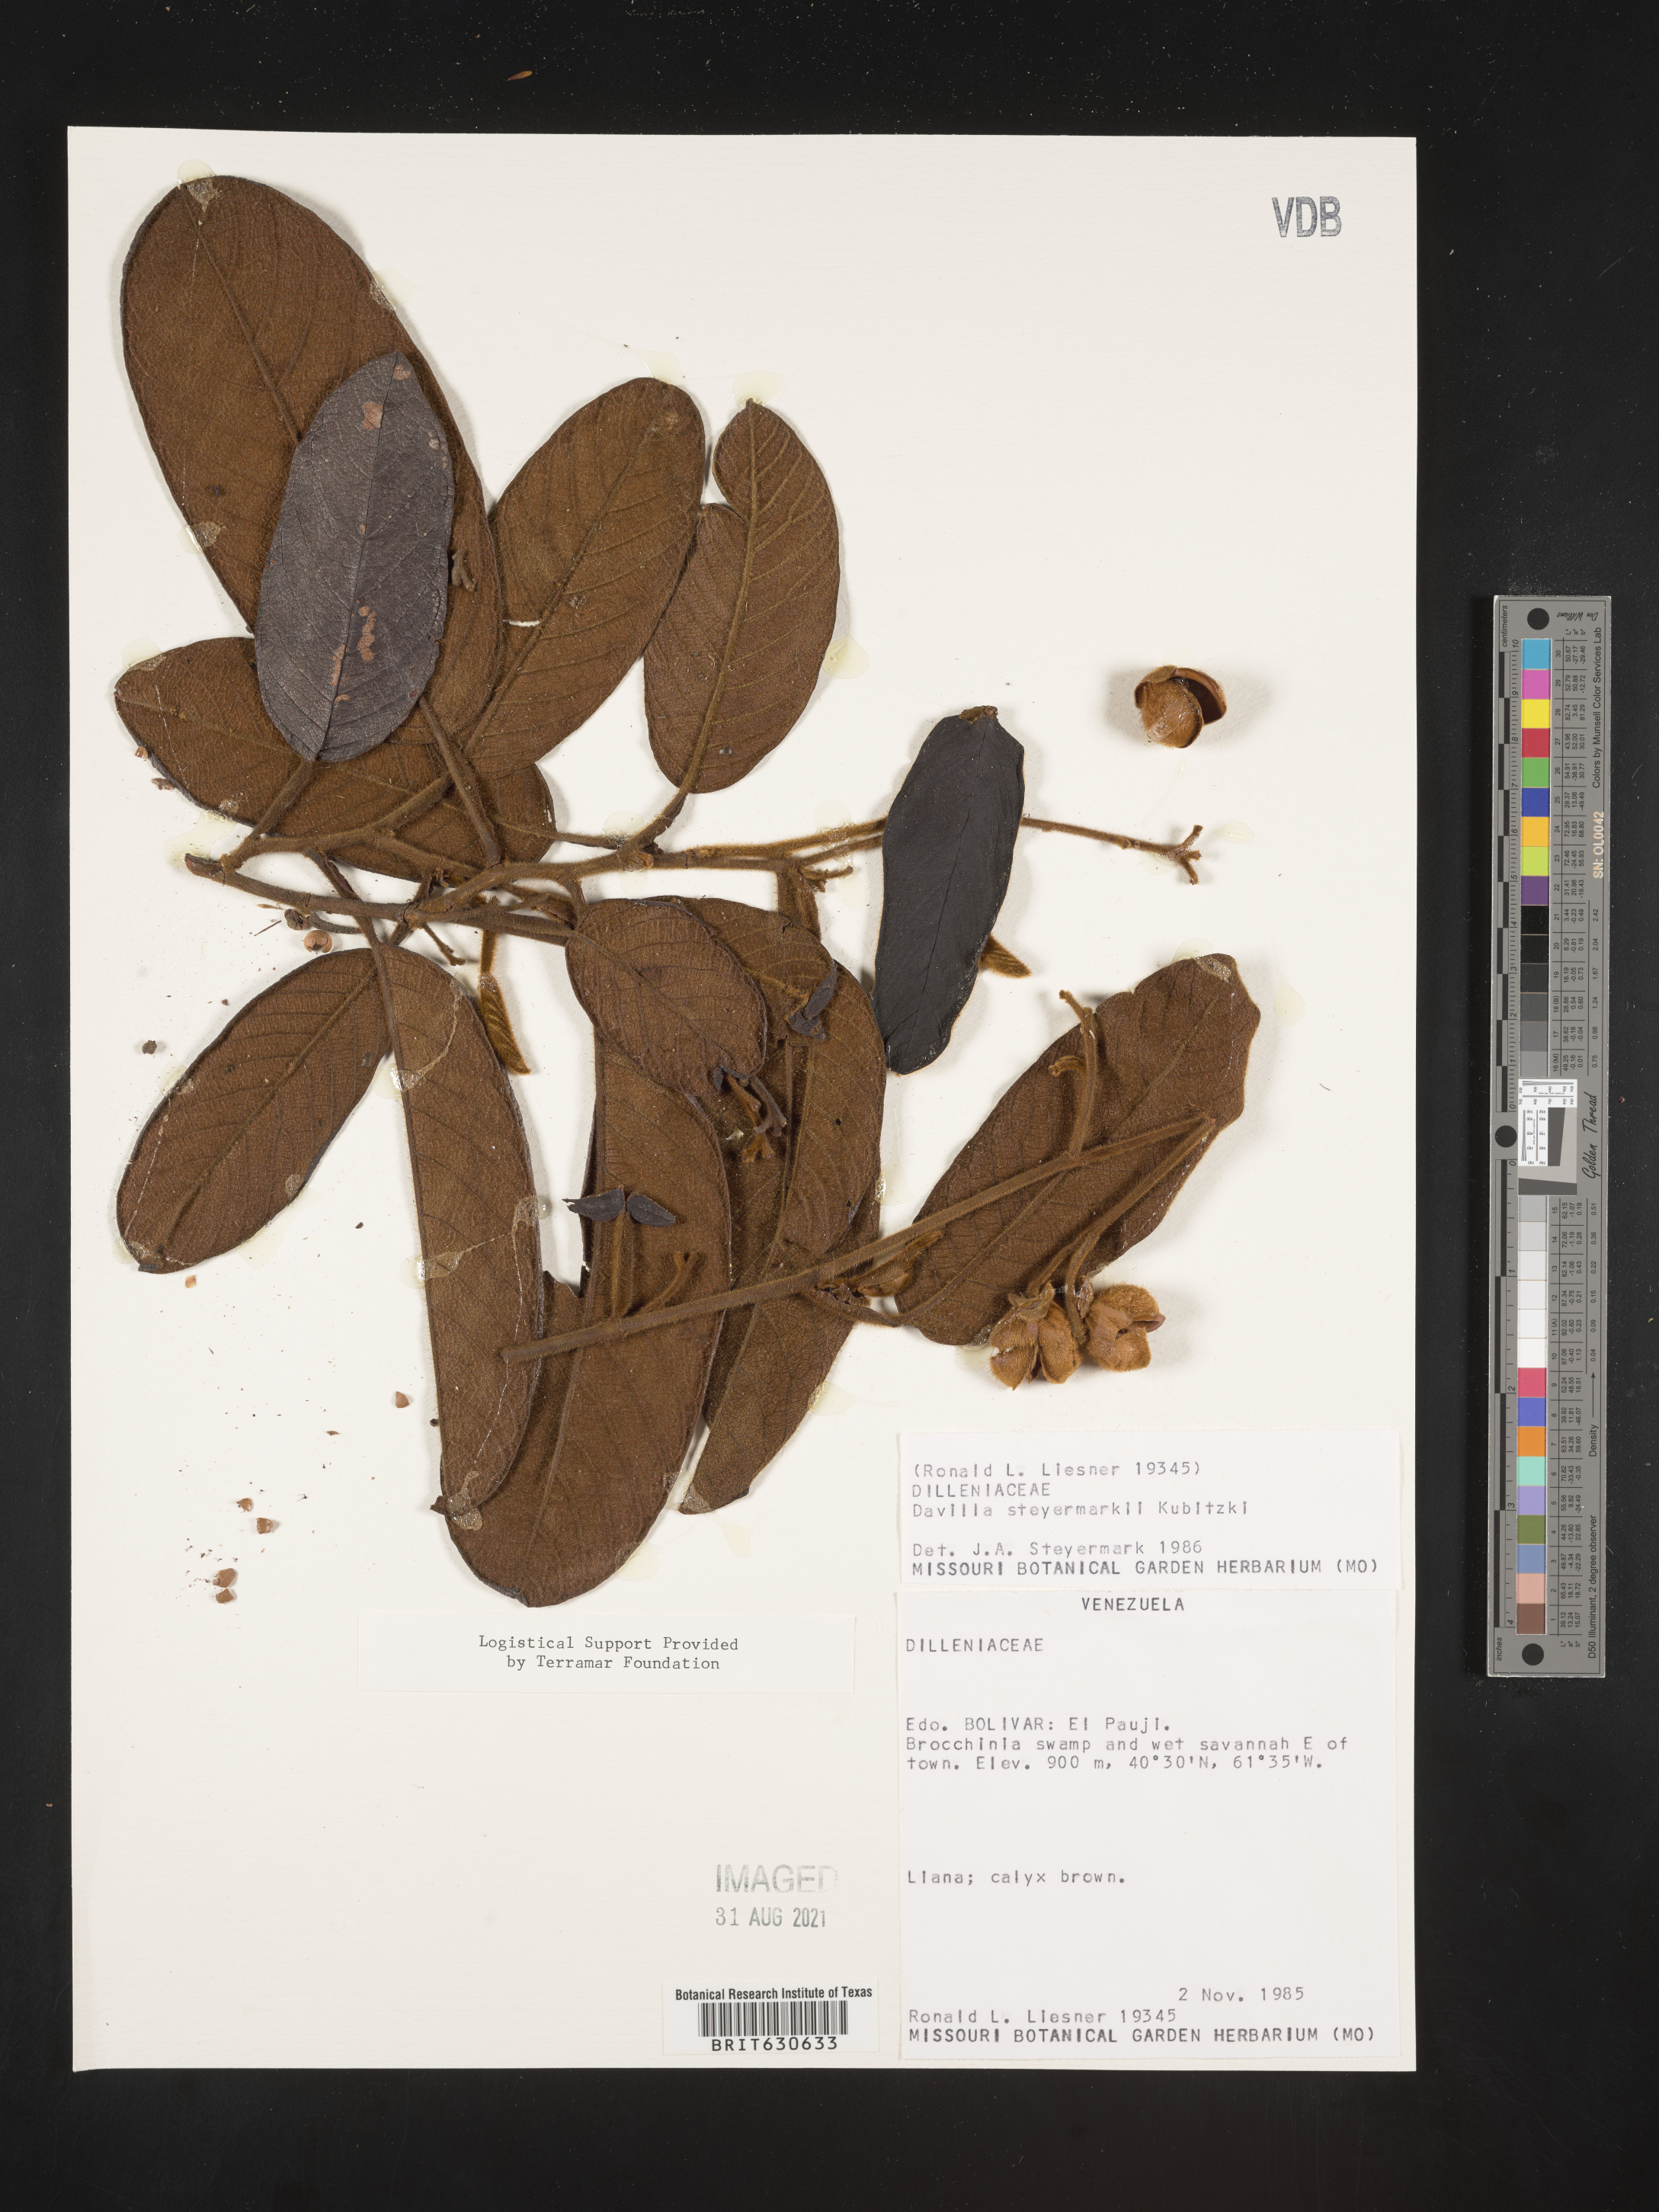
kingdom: Plantae
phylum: Tracheophyta
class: Magnoliopsida
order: Dilleniales
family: Dilleniaceae
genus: Davilla
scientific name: Davilla
